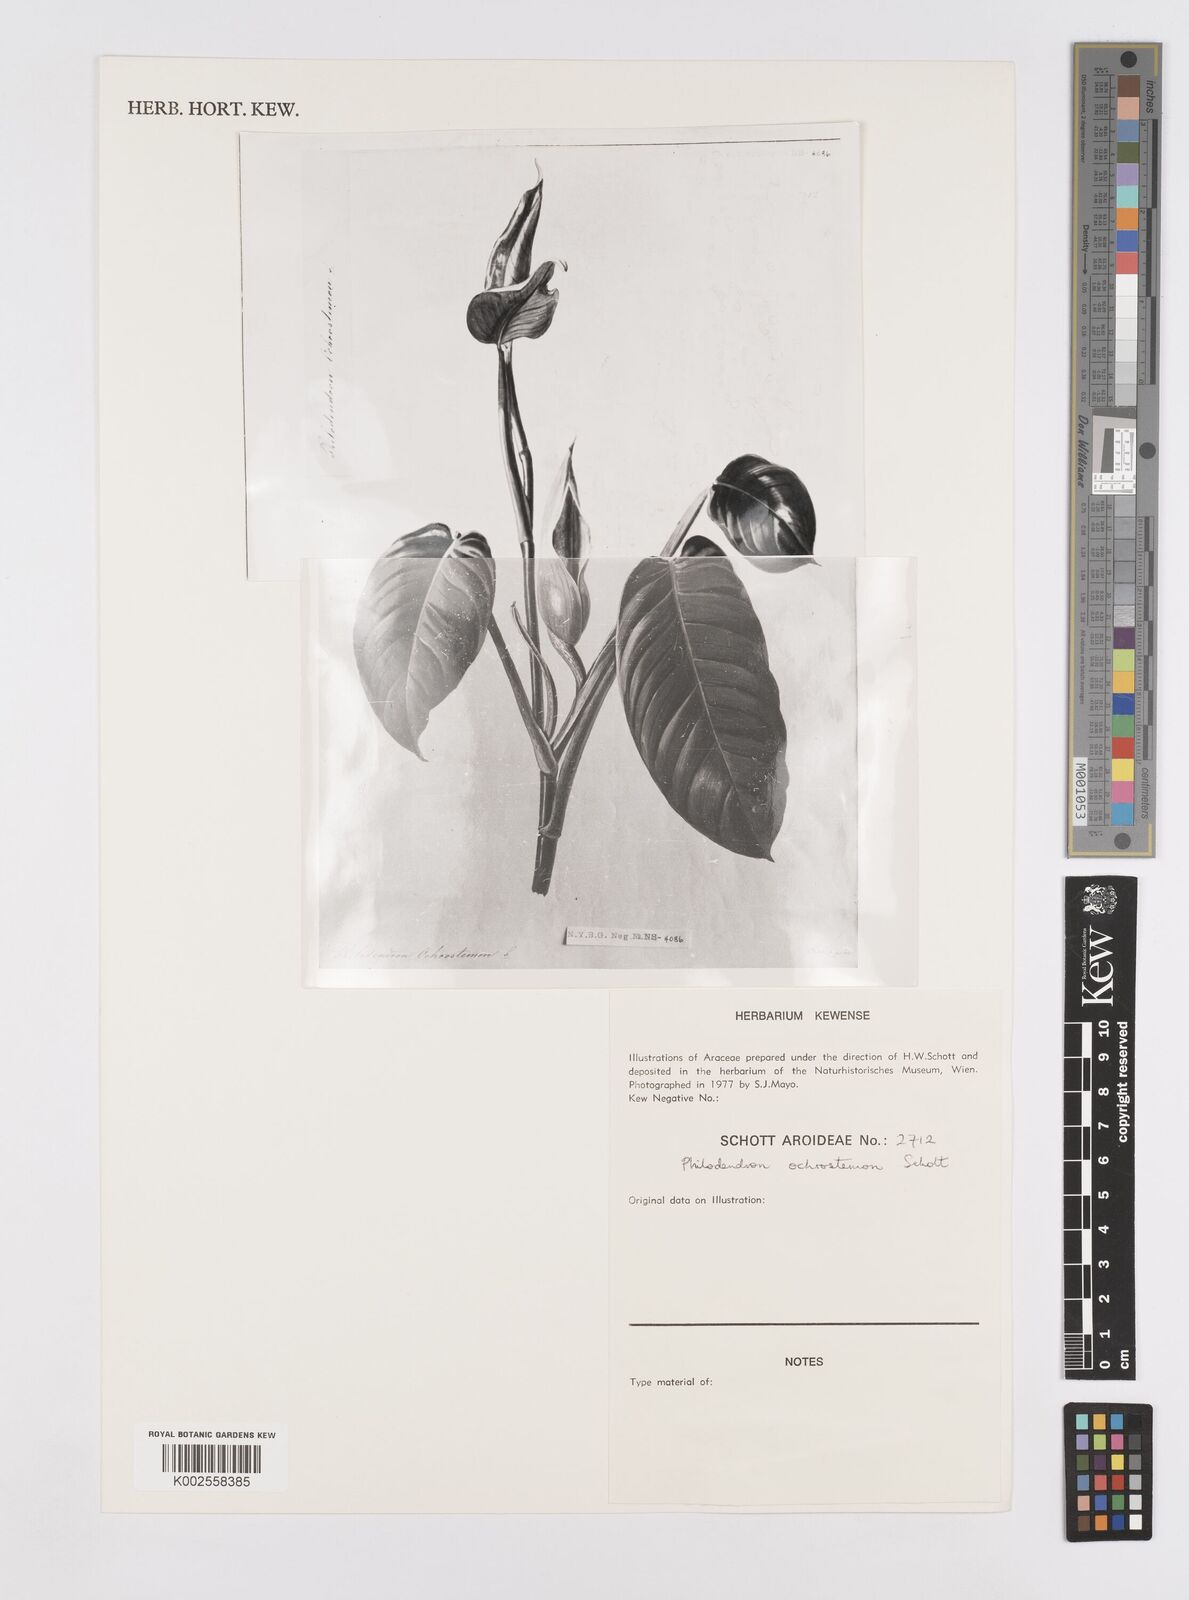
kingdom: Plantae
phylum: Tracheophyta
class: Liliopsida
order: Alismatales
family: Araceae
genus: Philodendron
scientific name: Philodendron ochrostemon
